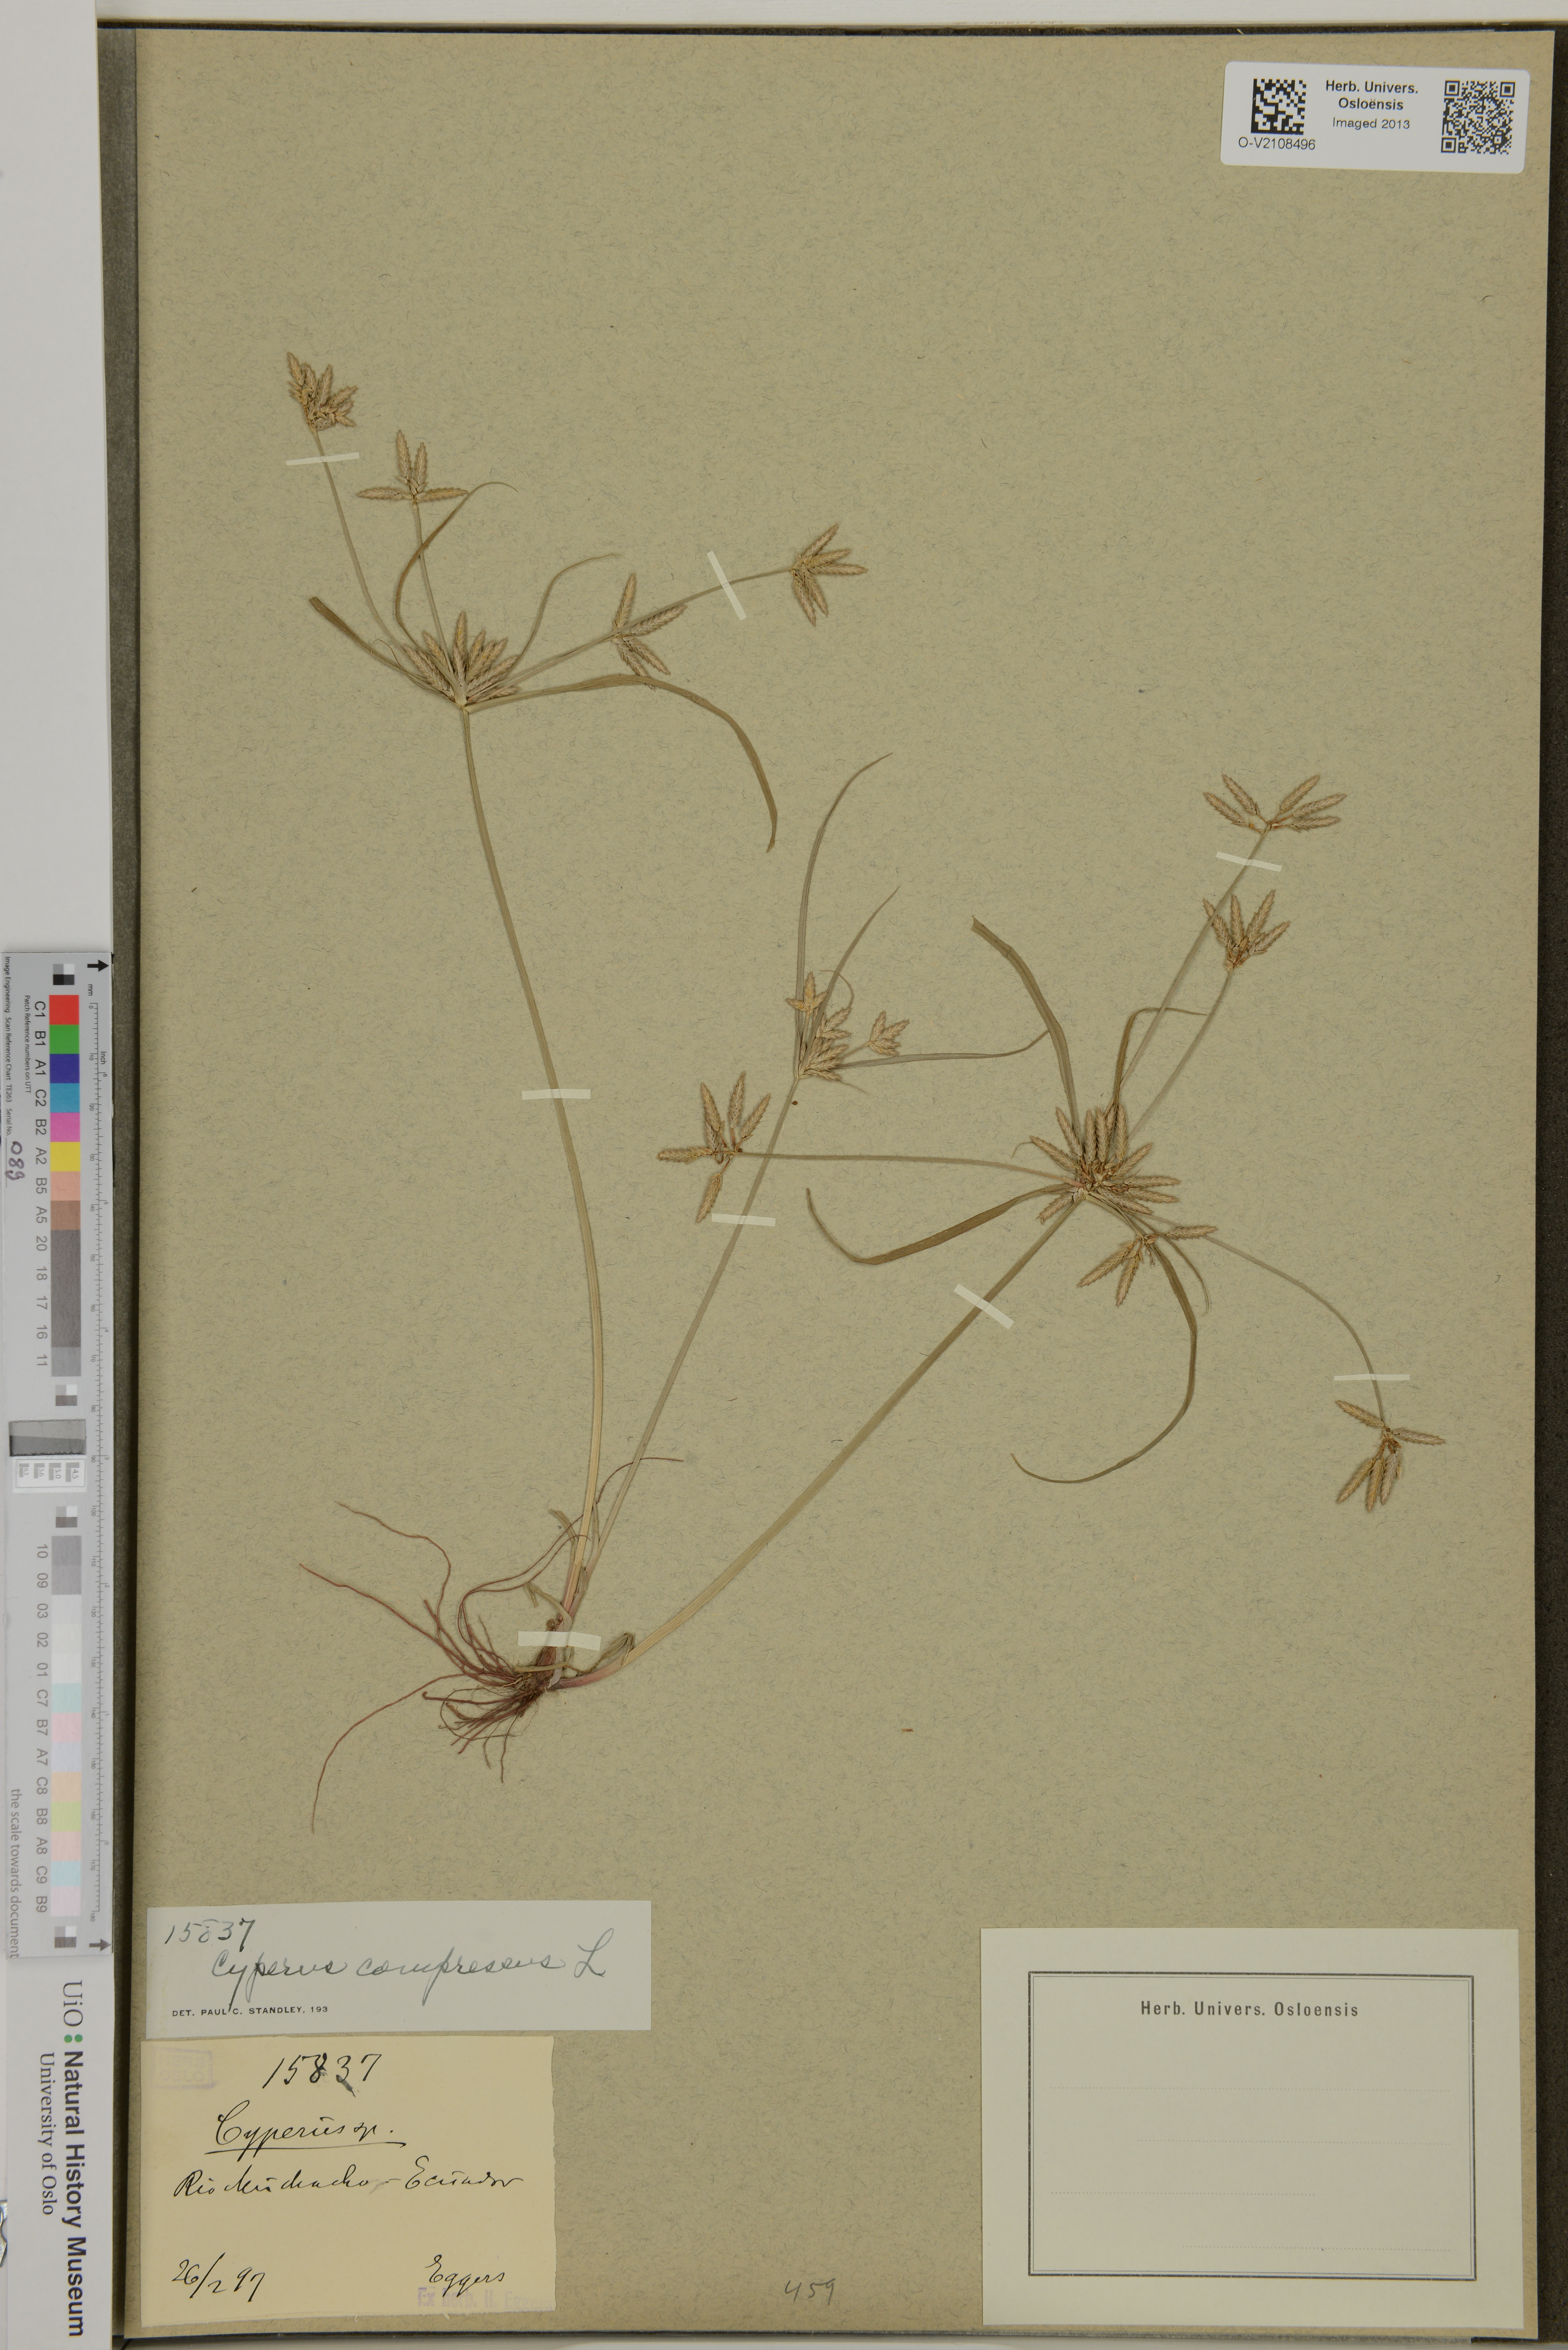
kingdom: Plantae
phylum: Tracheophyta
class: Liliopsida
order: Poales
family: Cyperaceae
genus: Cyperus
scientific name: Cyperus compressus
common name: Poorland flatsedge
